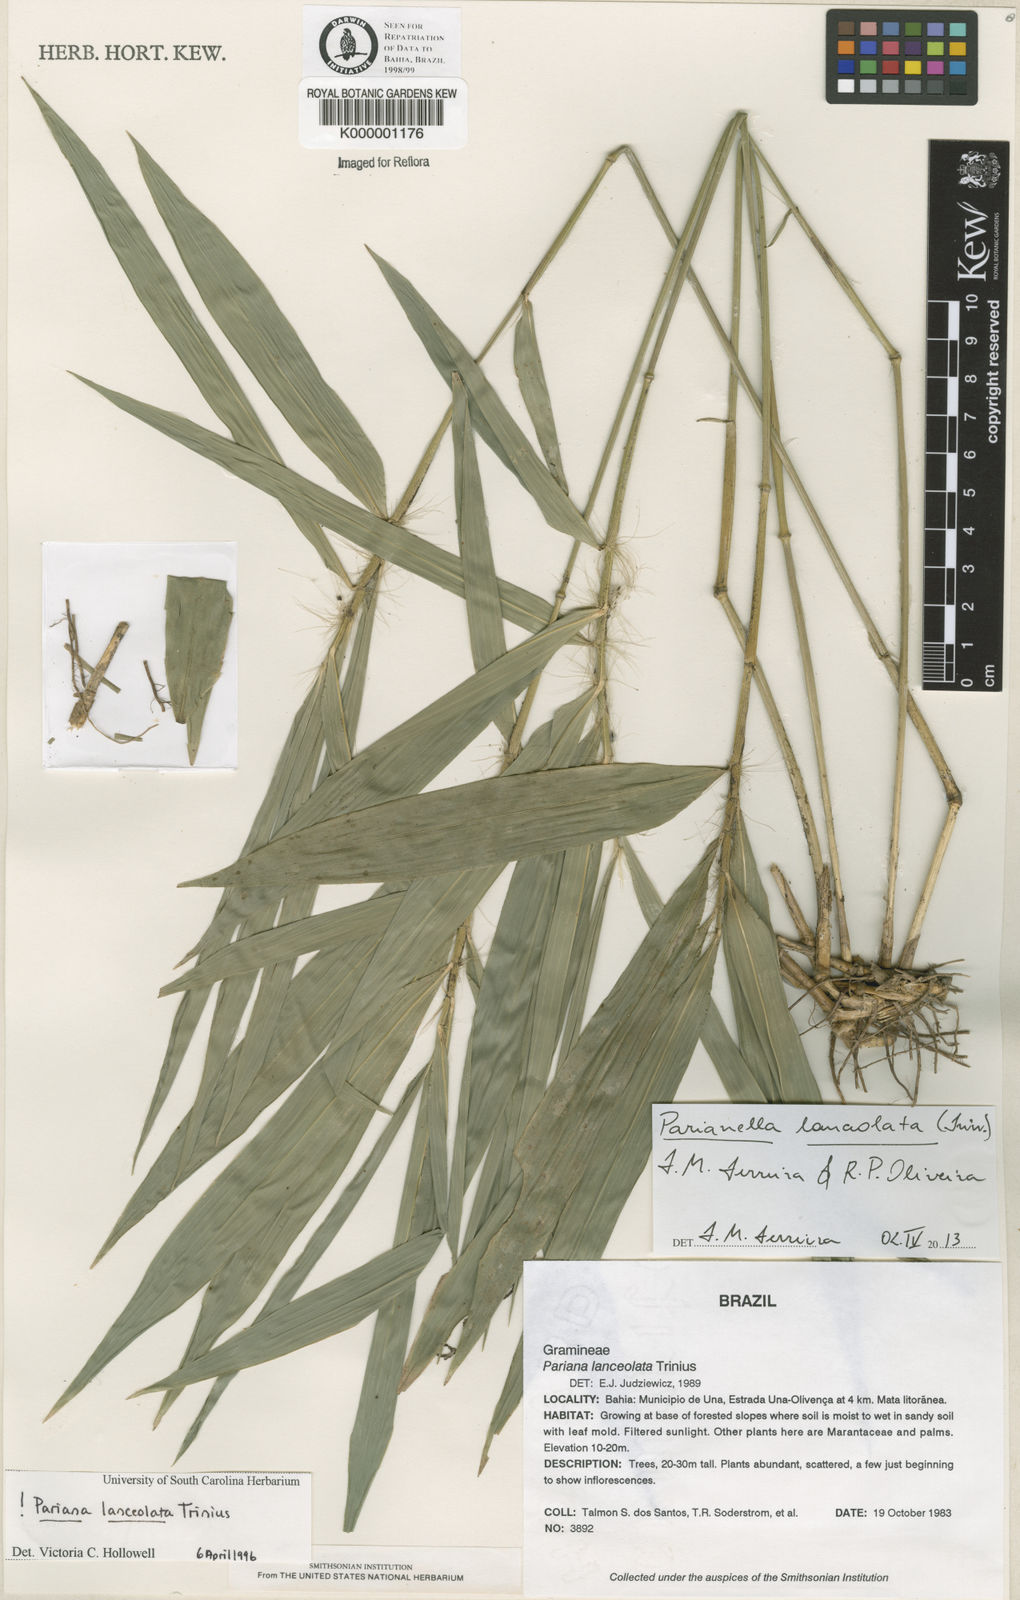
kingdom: Plantae
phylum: Tracheophyta
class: Liliopsida
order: Poales
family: Poaceae
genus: Parianella
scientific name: Parianella lanceolata
